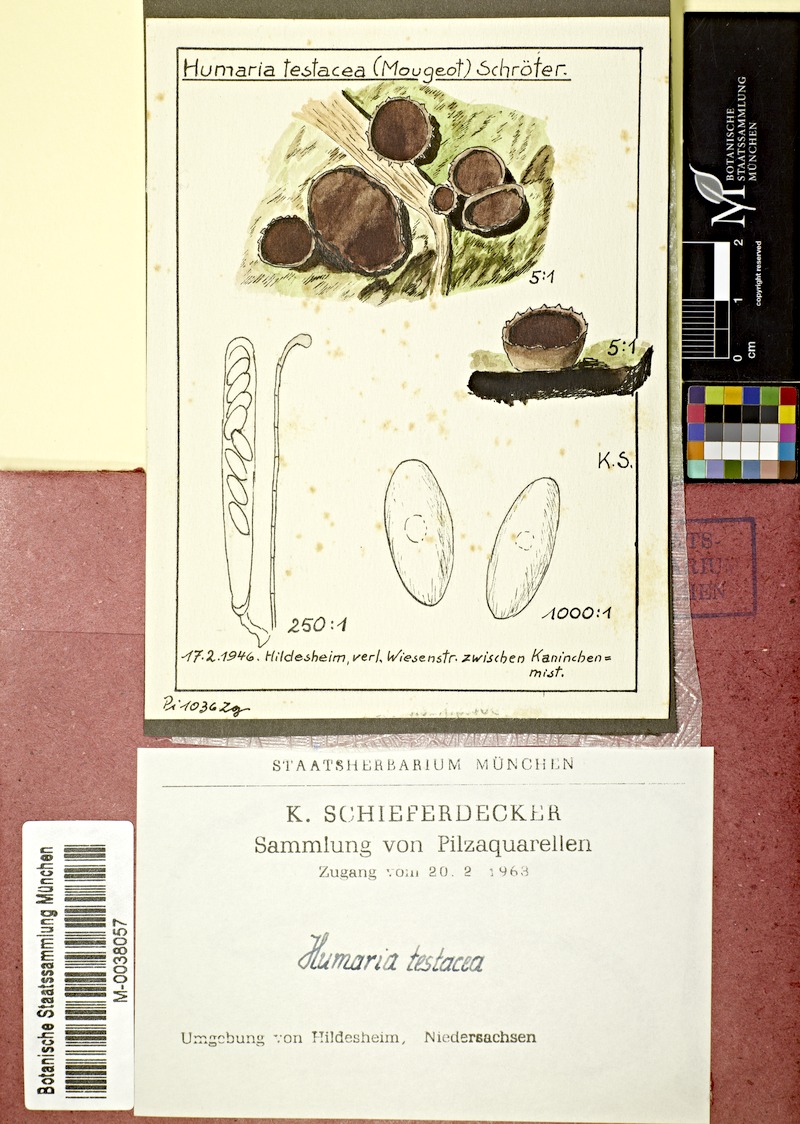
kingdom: Fungi
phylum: Ascomycota
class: Pezizomycetes
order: Pezizales
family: Pezizaceae
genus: Iodophanus
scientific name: Iodophanus testaceus
